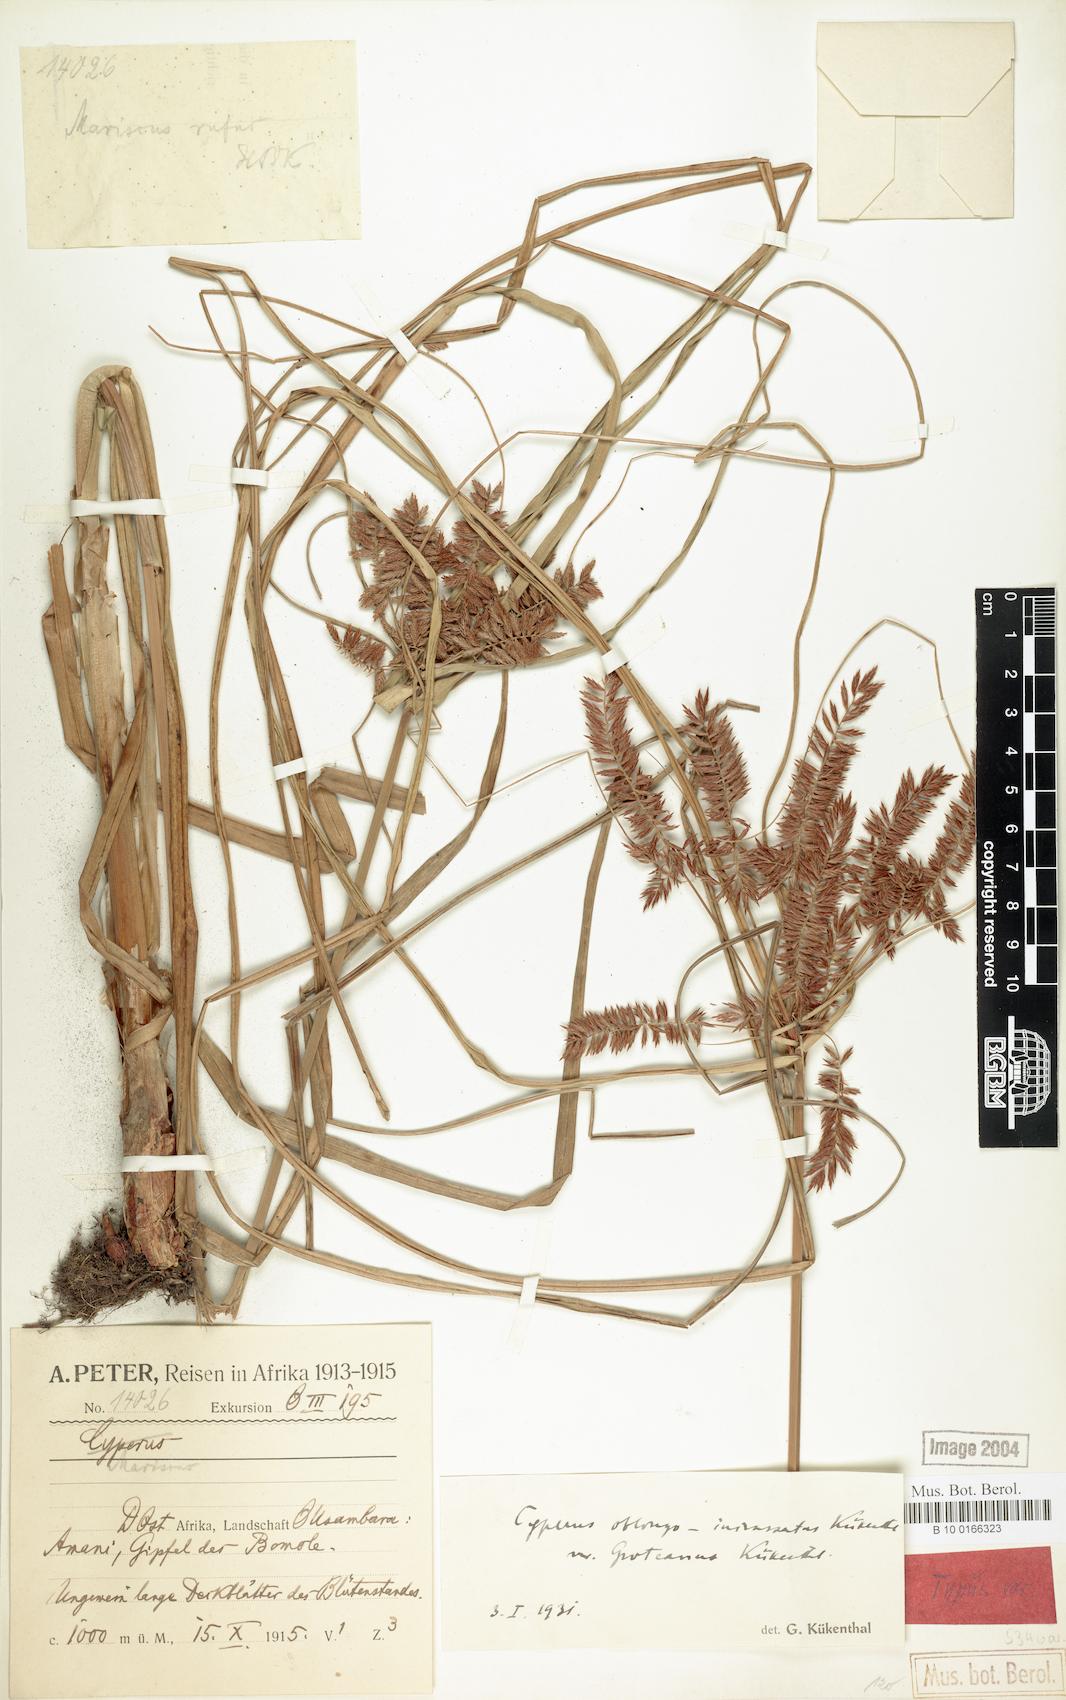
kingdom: Plantae
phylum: Tracheophyta
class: Liliopsida
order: Poales
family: Cyperaceae
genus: Cyperus
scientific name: Cyperus oblongoincrassatus
